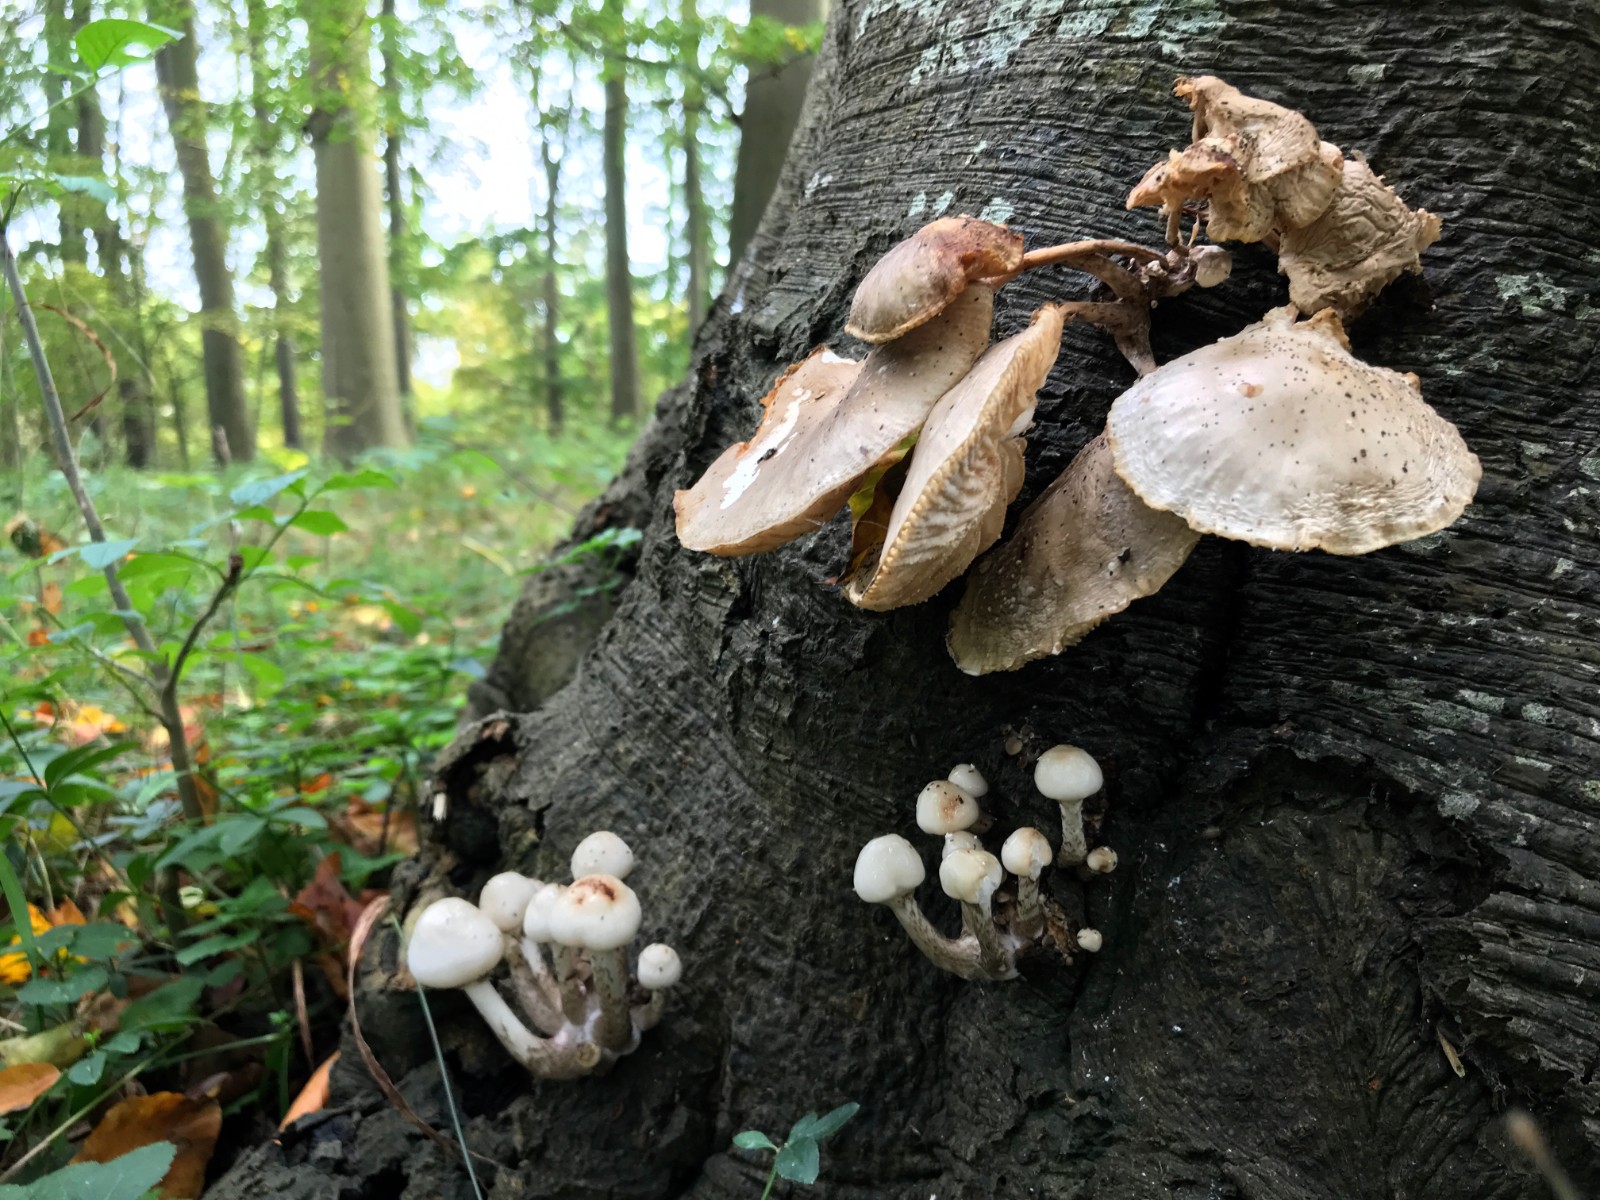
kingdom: Fungi
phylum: Basidiomycota
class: Agaricomycetes
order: Agaricales
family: Physalacriaceae
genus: Mucidula
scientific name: Mucidula mucida
